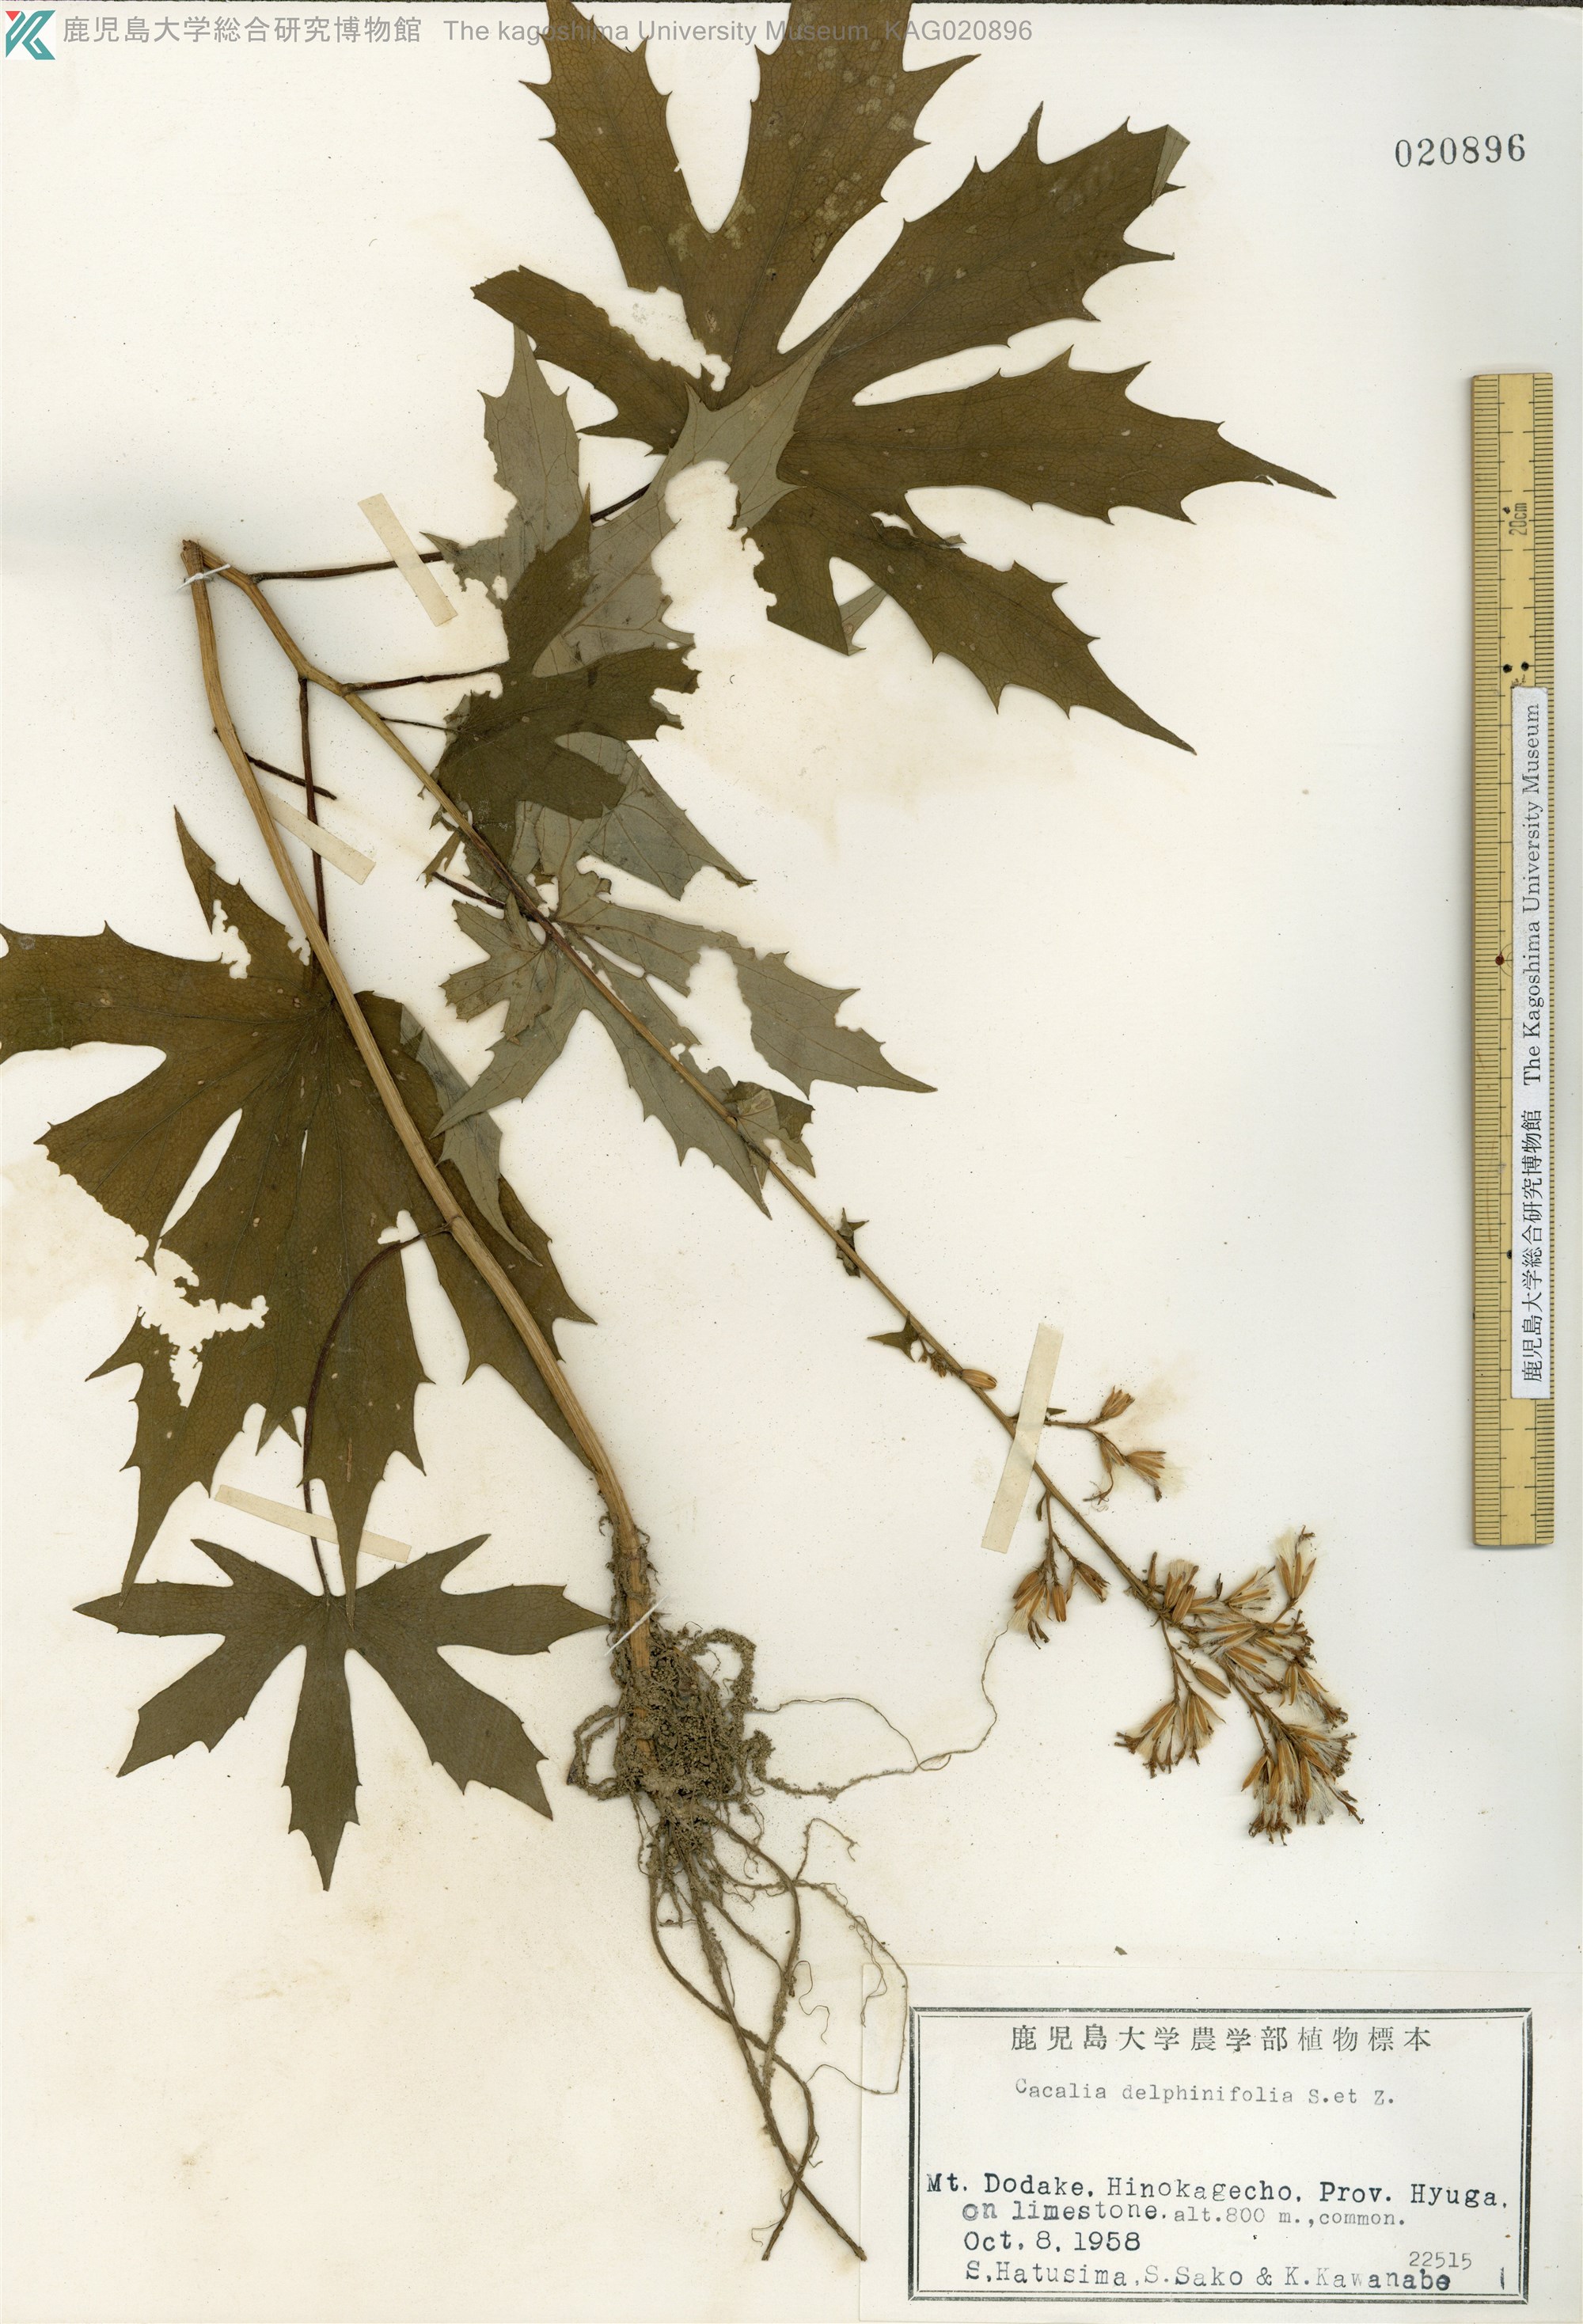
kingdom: Plantae
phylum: Tracheophyta
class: Magnoliopsida
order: Asterales
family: Asteraceae
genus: Japonicalia
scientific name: Japonicalia delphiniifolia
